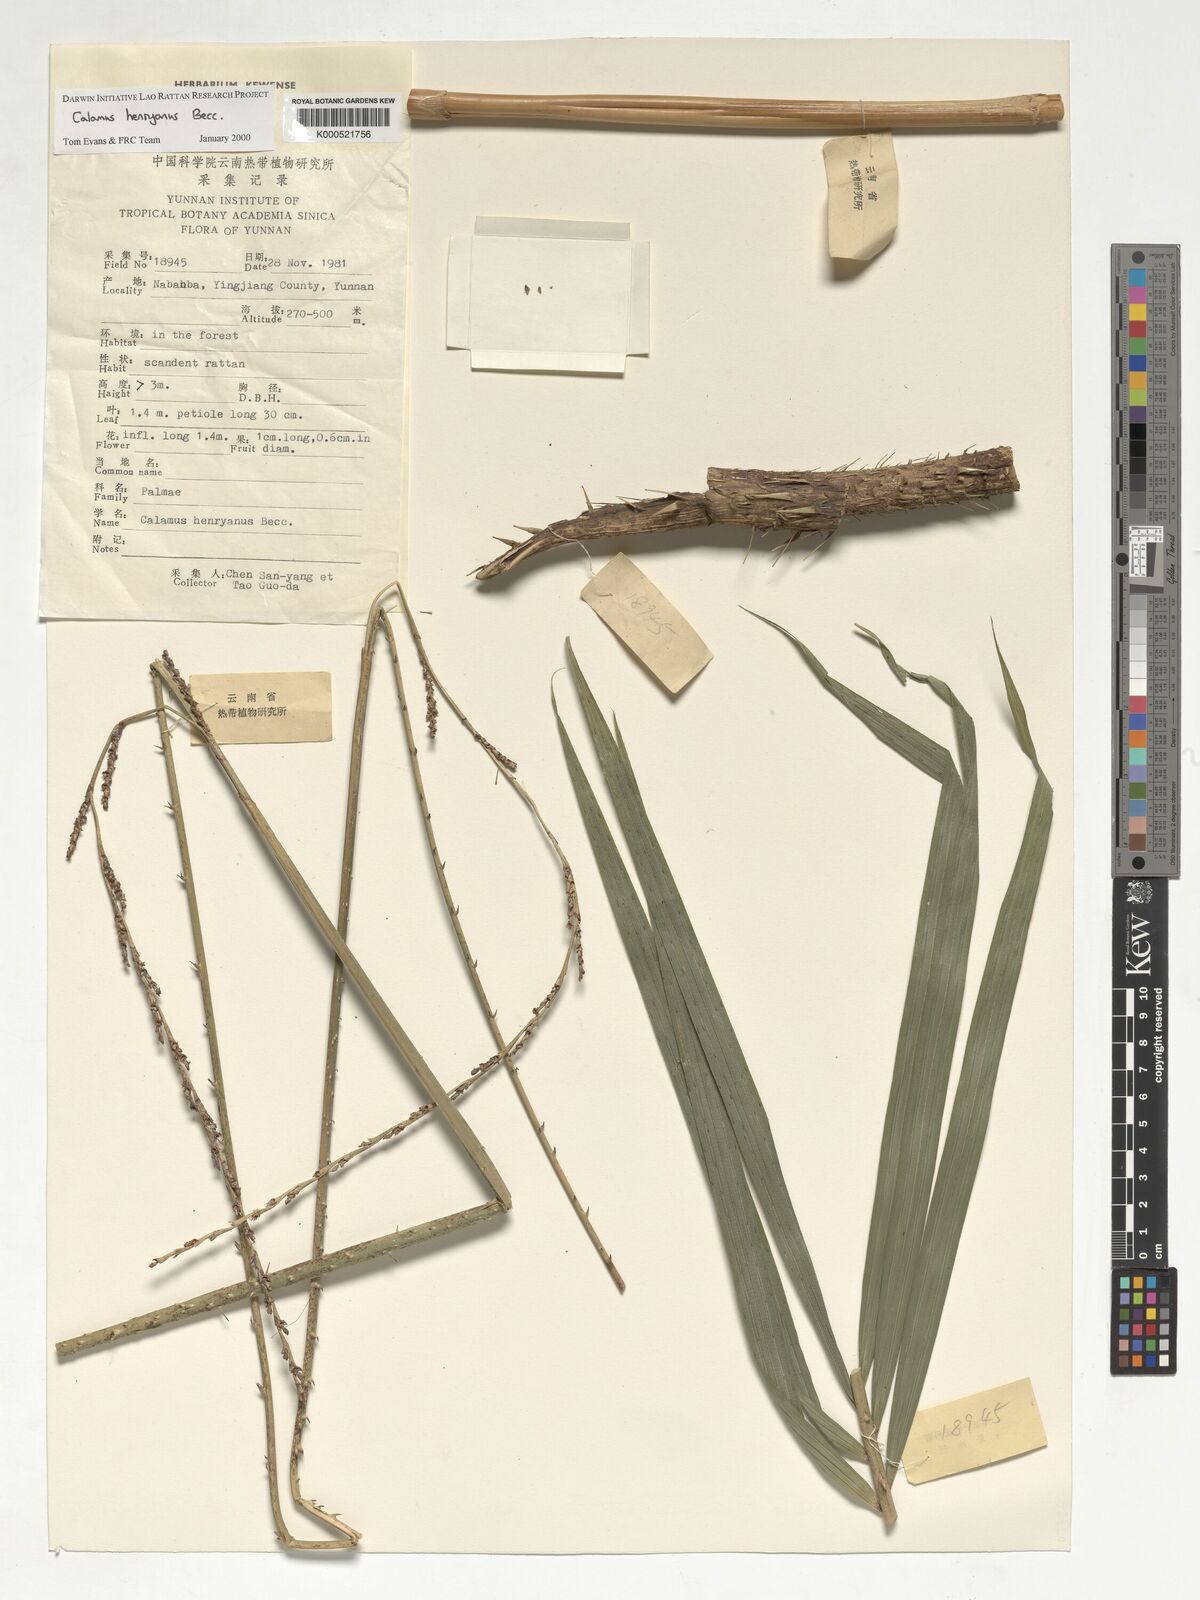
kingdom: Plantae
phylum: Tracheophyta
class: Liliopsida
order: Arecales
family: Arecaceae
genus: Calamus
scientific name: Calamus henryanus
